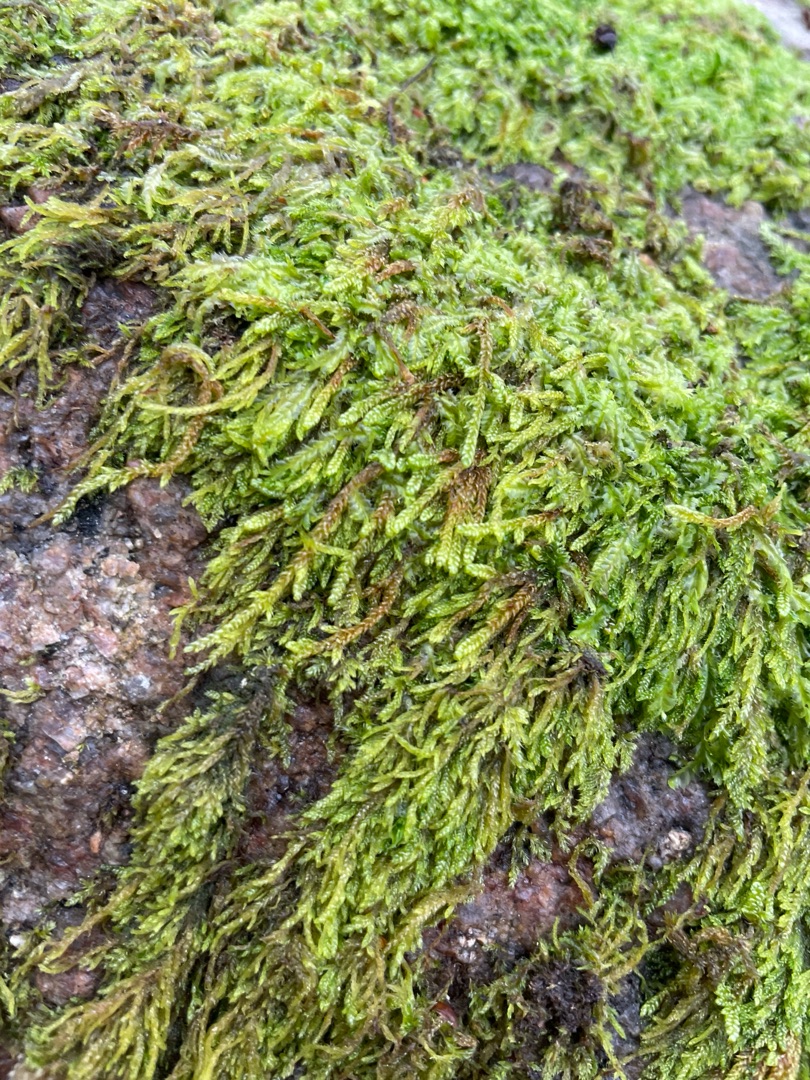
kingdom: Plantae
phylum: Bryophyta
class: Bryopsida
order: Hypnales
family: Hypnaceae
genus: Hypnum
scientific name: Hypnum cupressiforme
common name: Almindelig cypresmos
